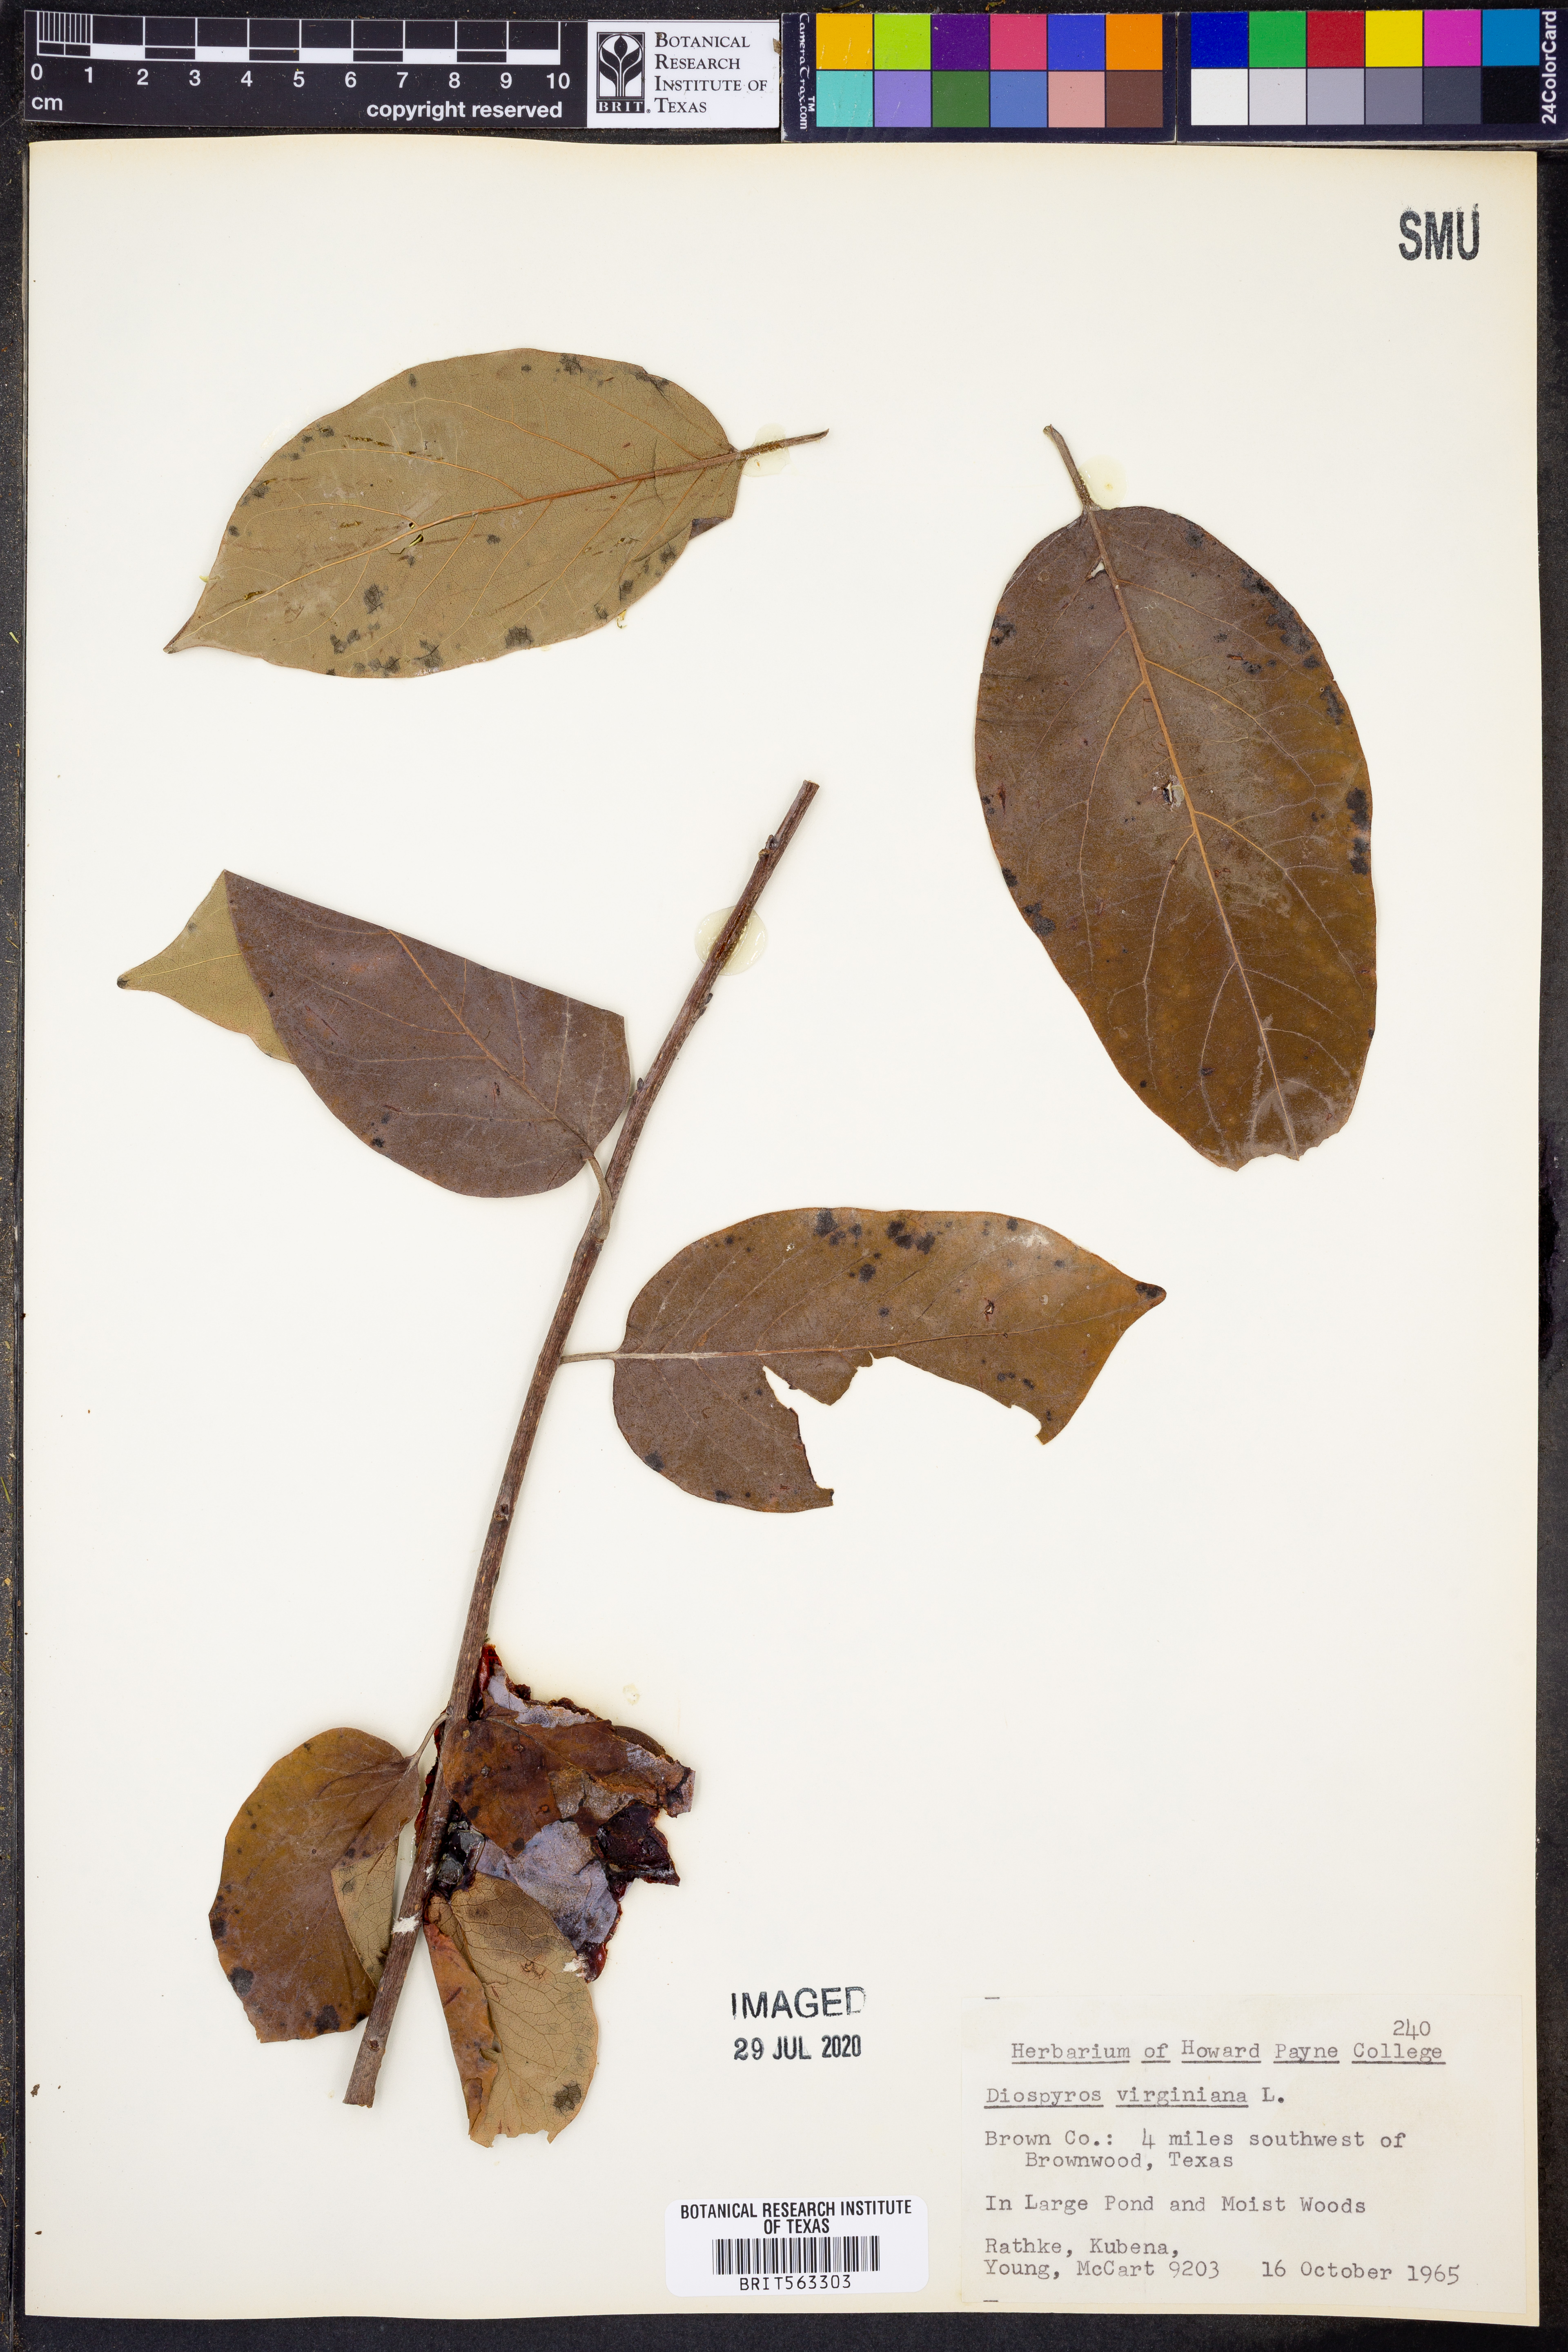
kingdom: Plantae
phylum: Tracheophyta
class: Magnoliopsida
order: Ericales
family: Ebenaceae
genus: Diospyros
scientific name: Diospyros virginiana
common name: Persimmon
